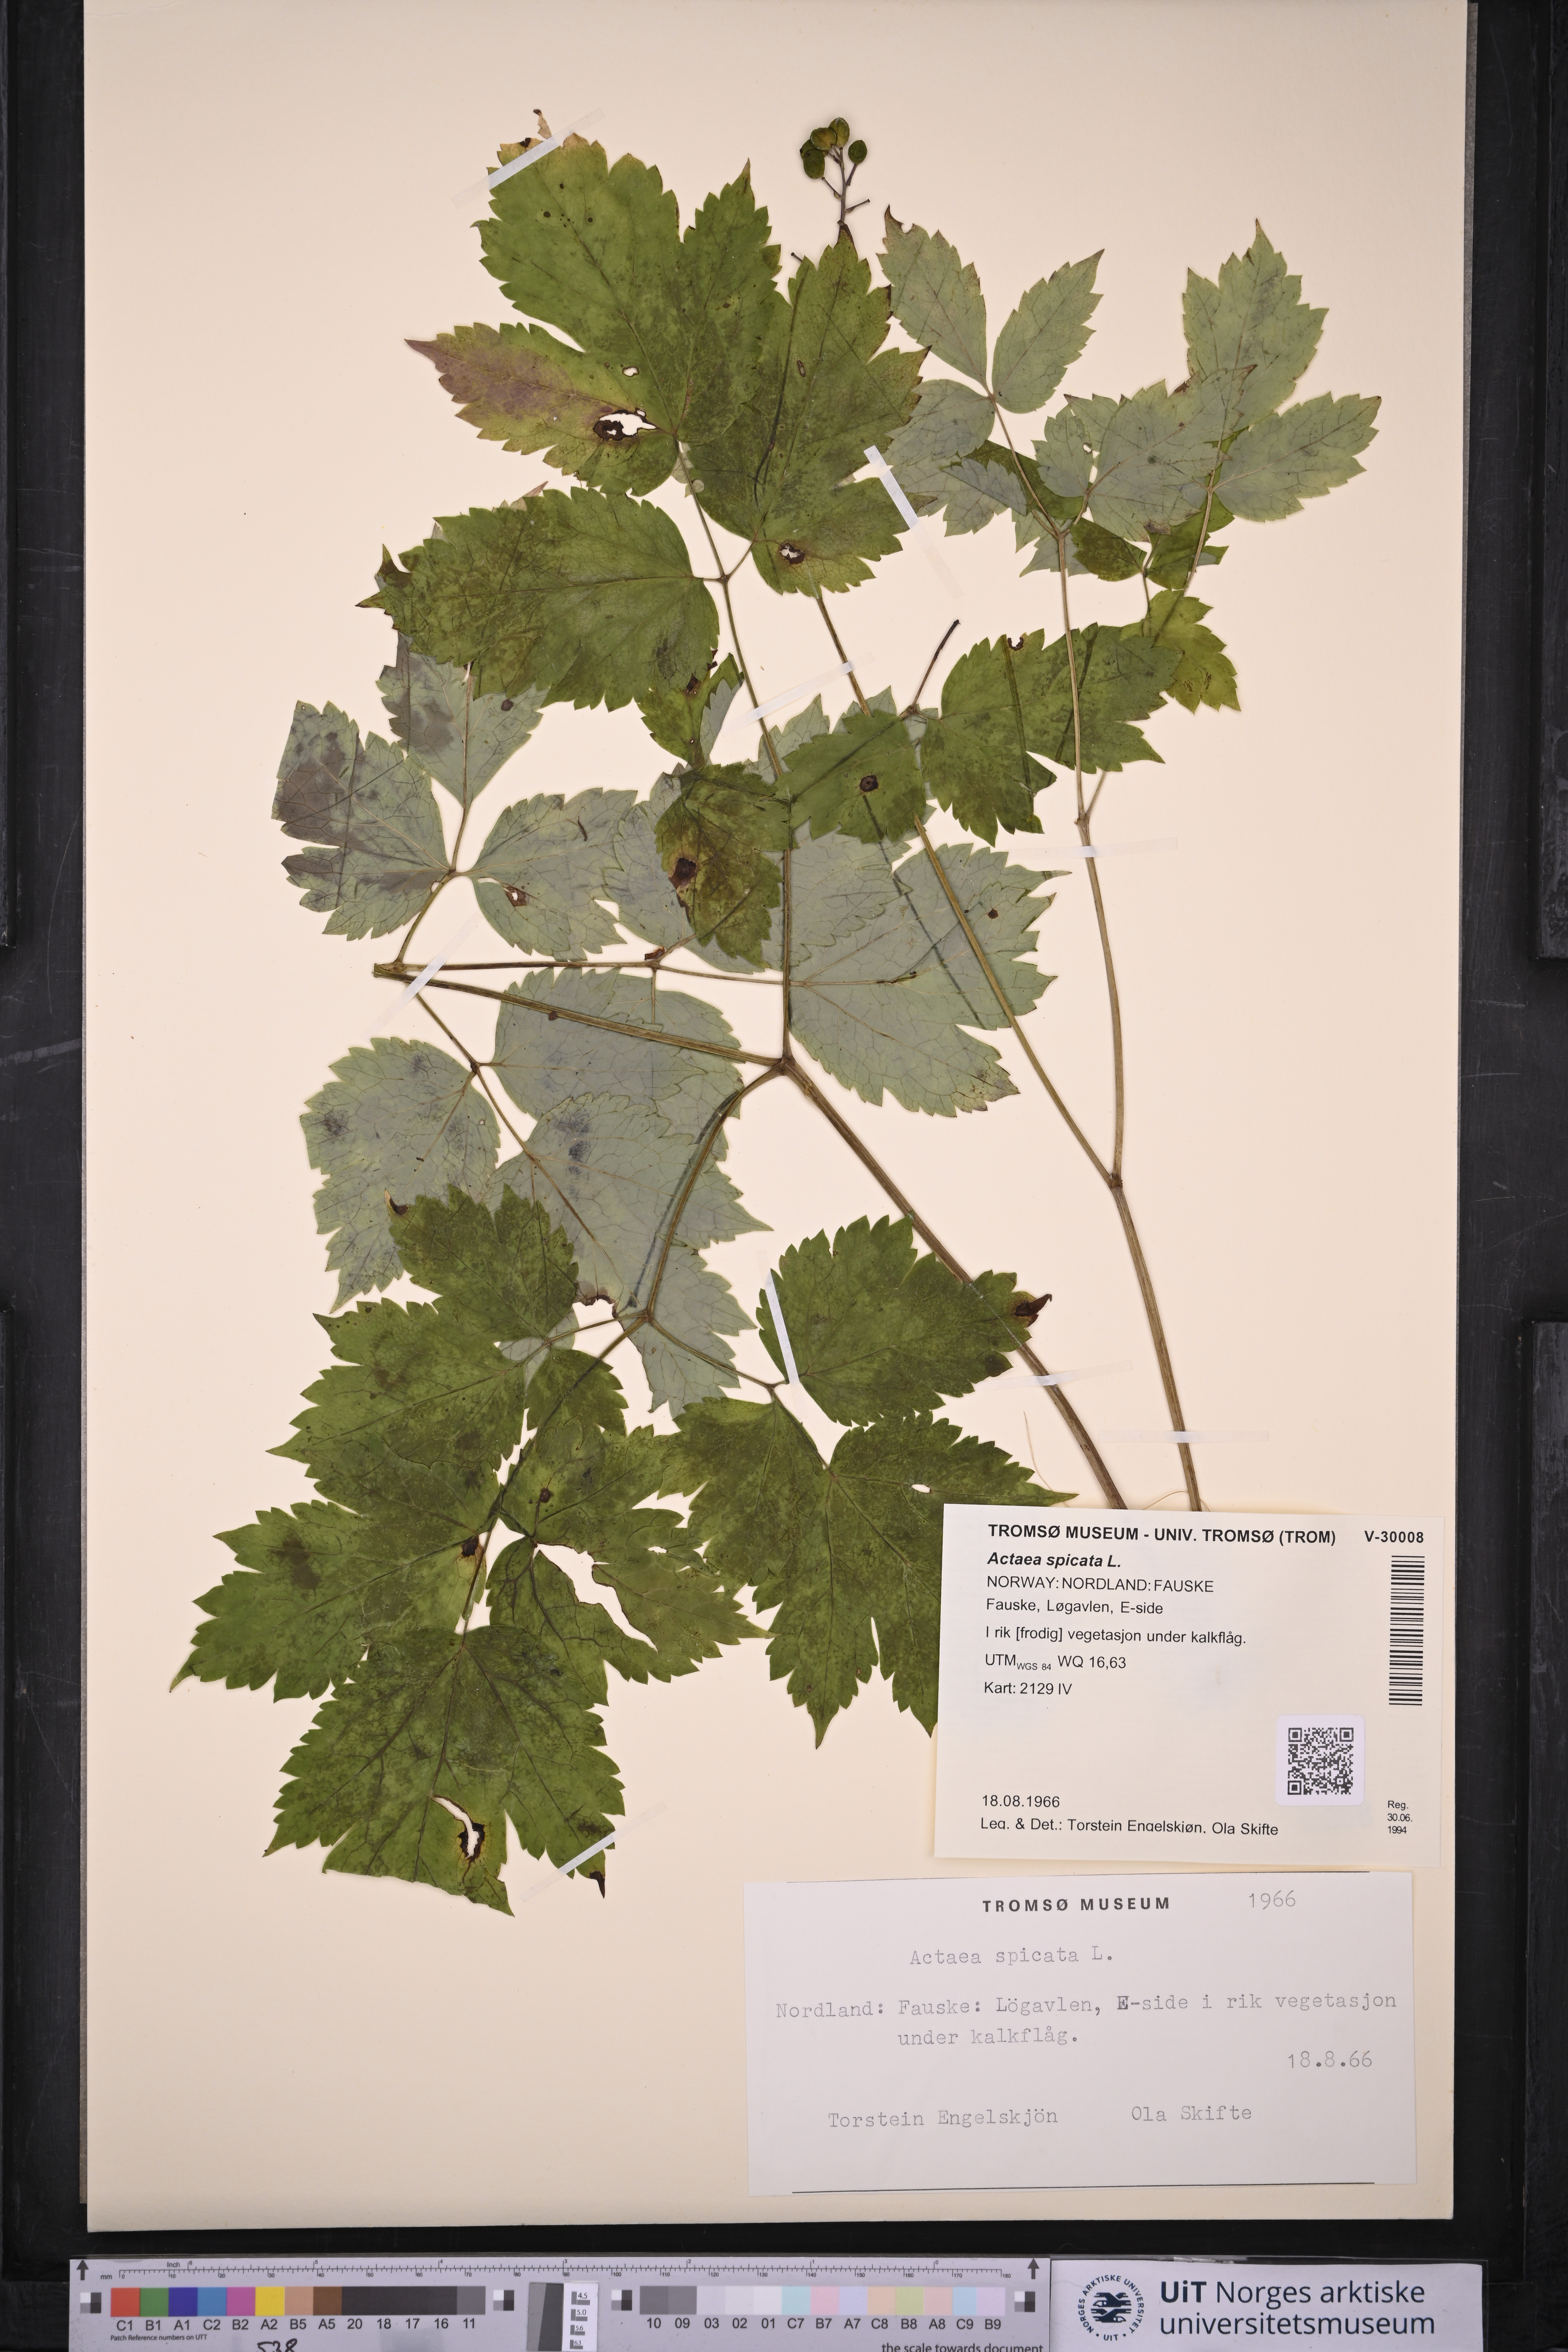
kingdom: Plantae
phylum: Tracheophyta
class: Magnoliopsida
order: Ranunculales
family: Ranunculaceae
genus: Actaea
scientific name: Actaea spicata
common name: Baneberry
